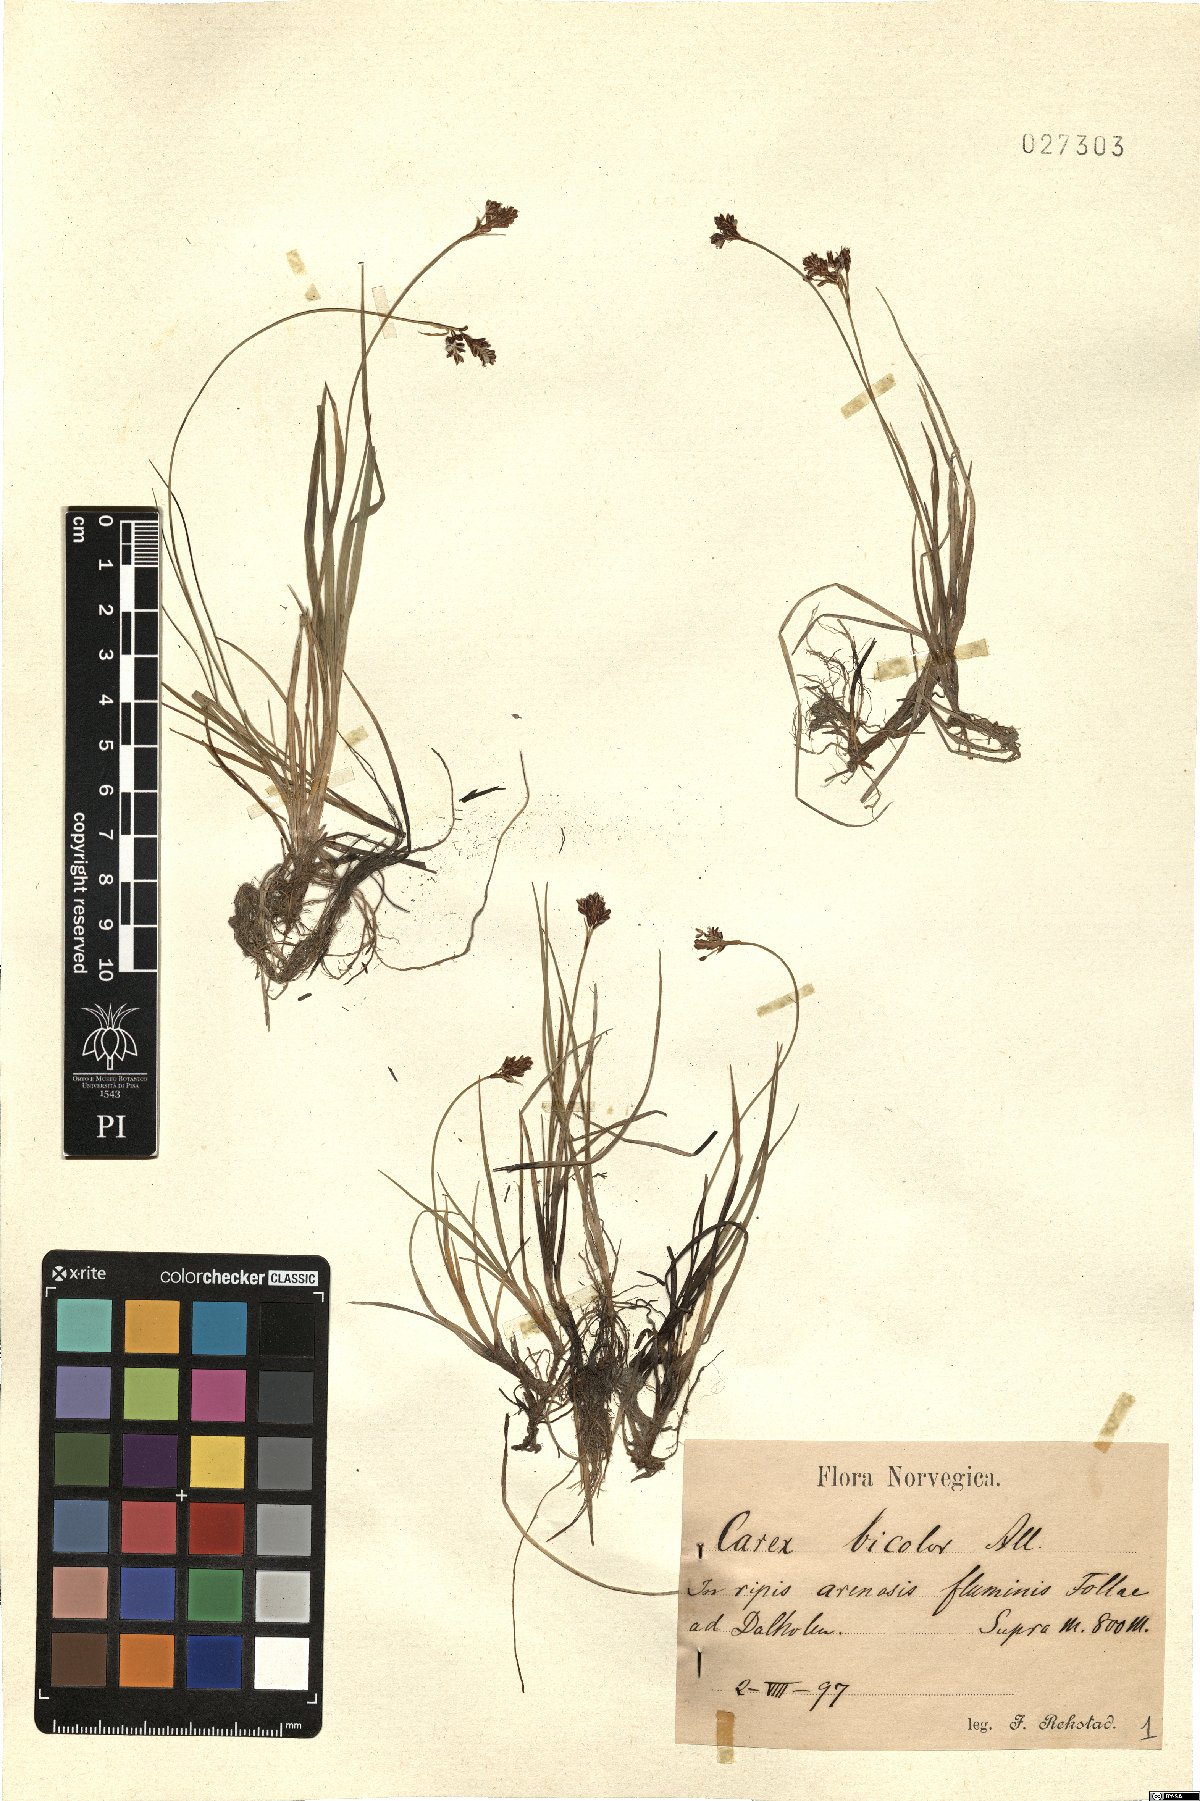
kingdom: Plantae
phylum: Tracheophyta
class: Liliopsida
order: Poales
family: Cyperaceae
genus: Carex
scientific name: Carex bicolor
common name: Bicoloured sedge
